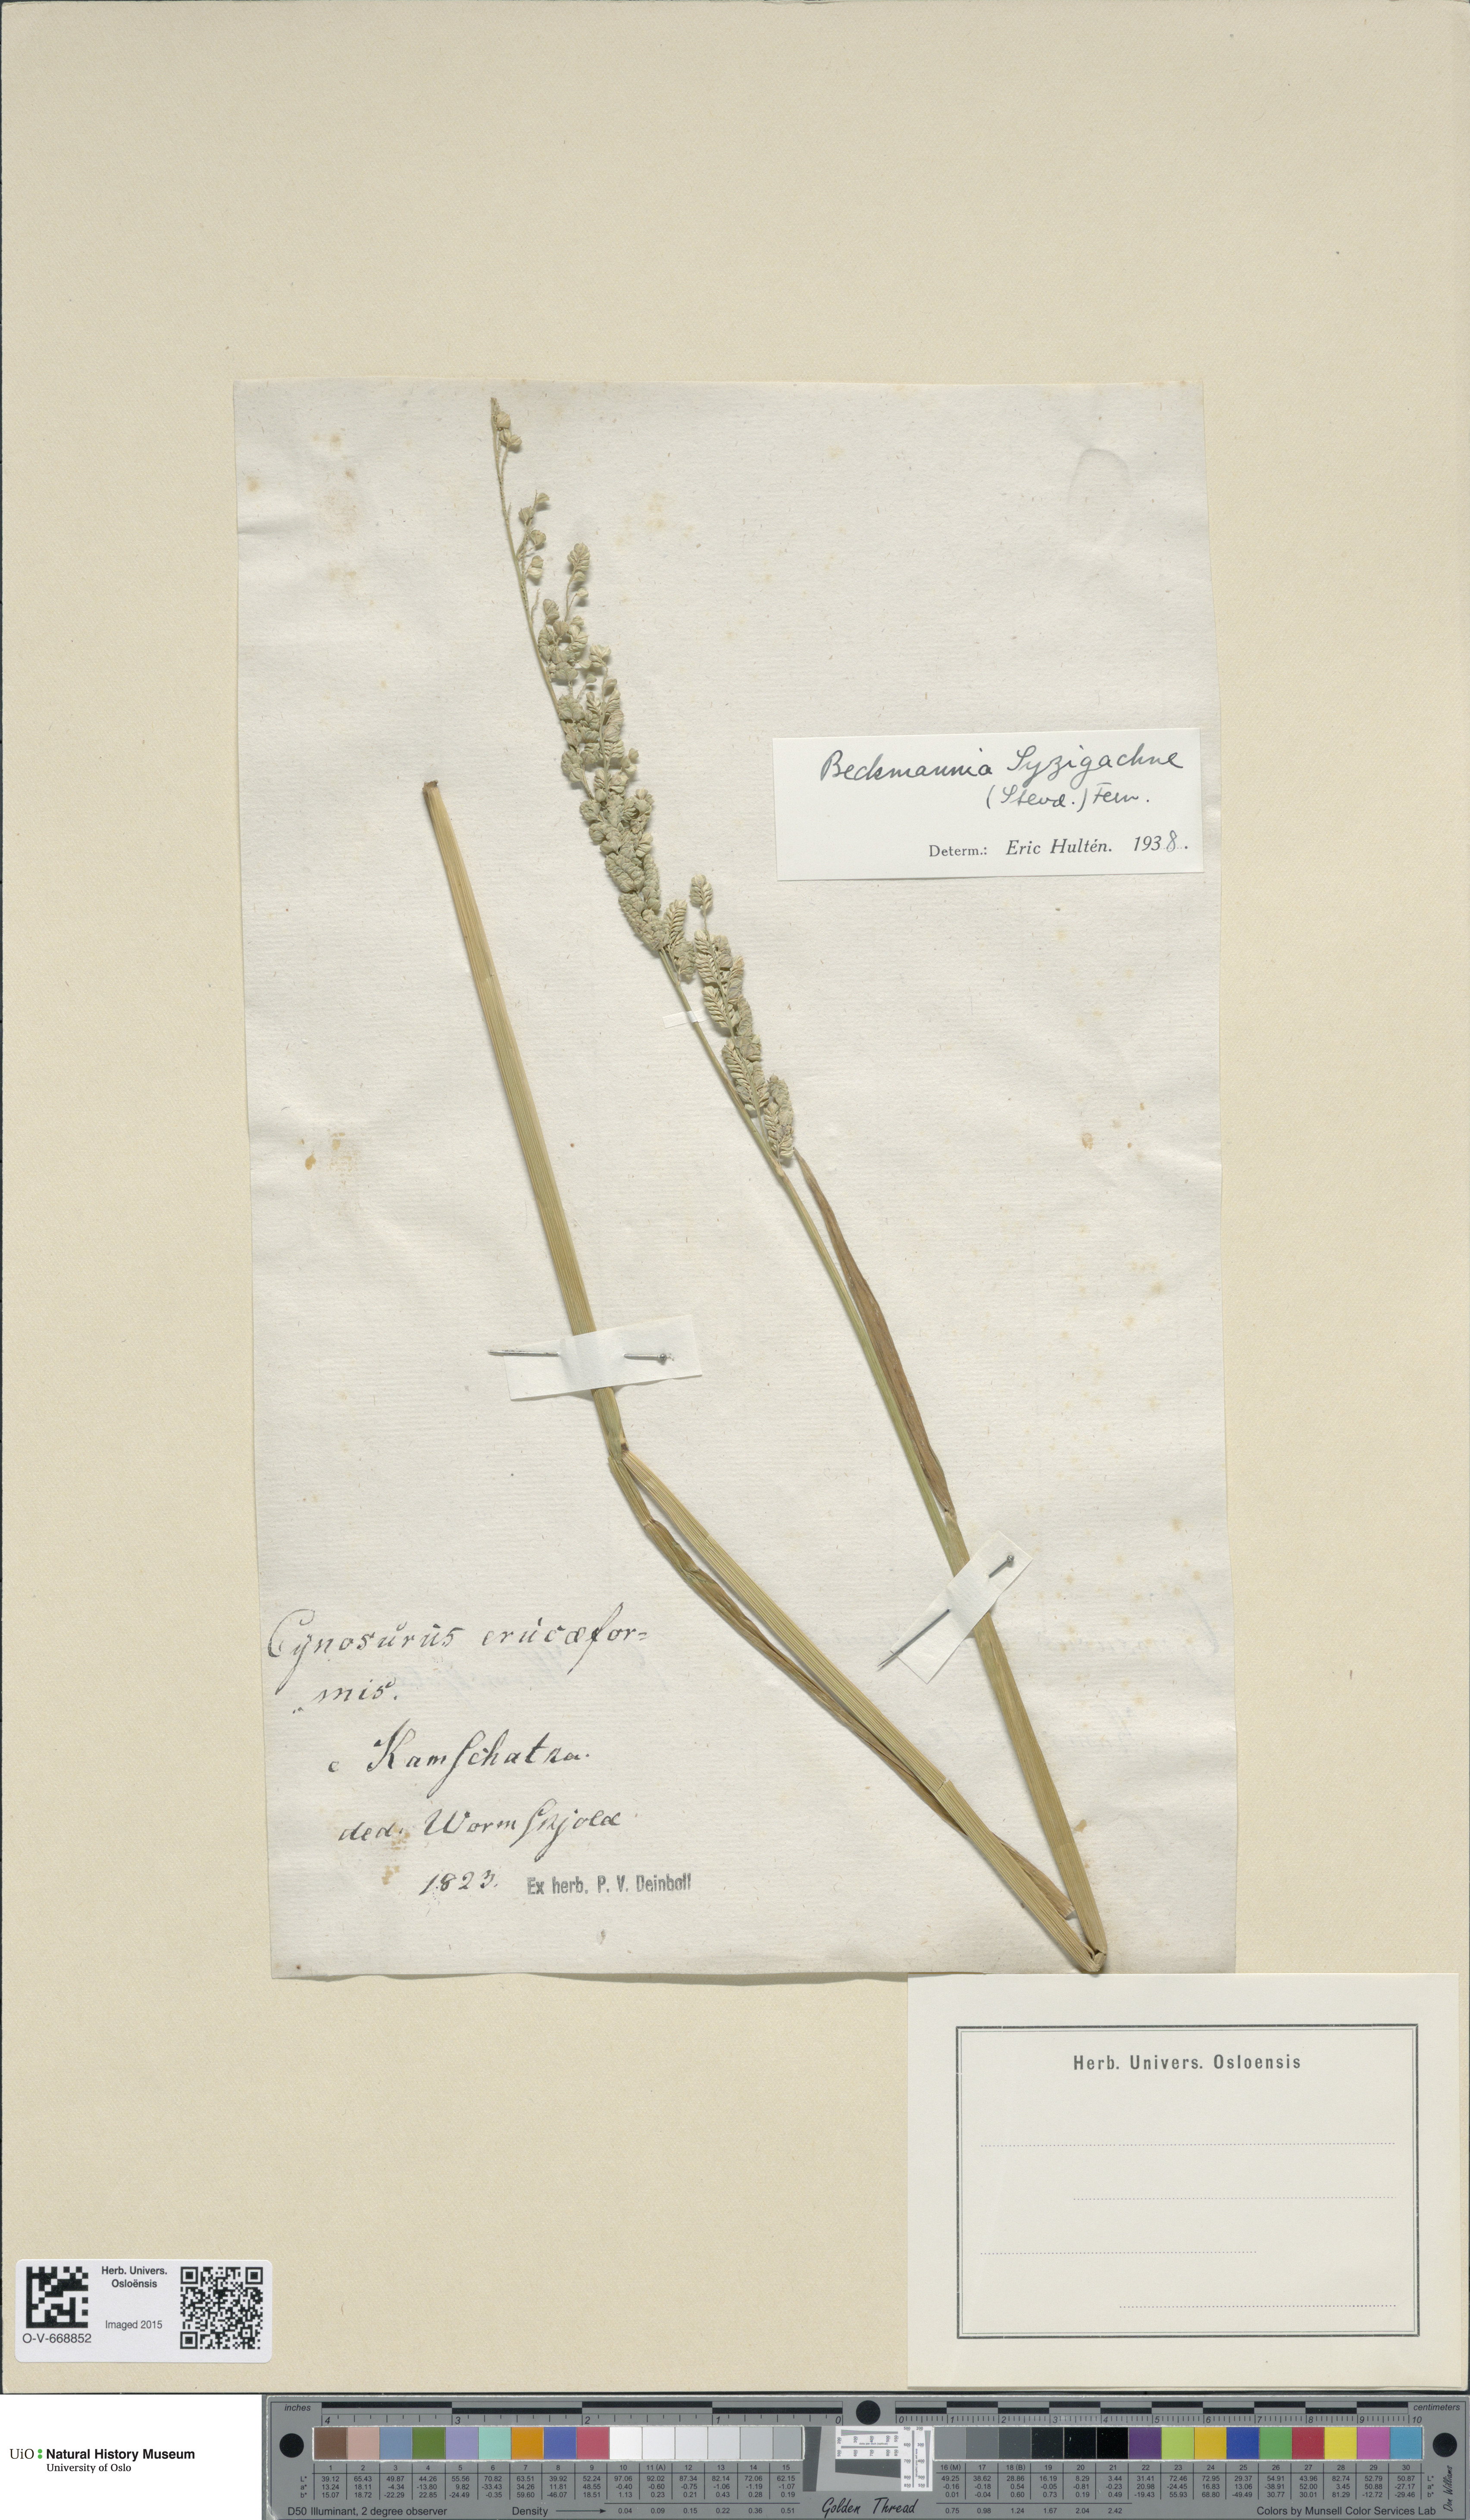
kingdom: Plantae
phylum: Tracheophyta
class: Liliopsida
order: Poales
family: Poaceae
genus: Beckmannia
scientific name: Beckmannia syzigachne
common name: American slough-grass
